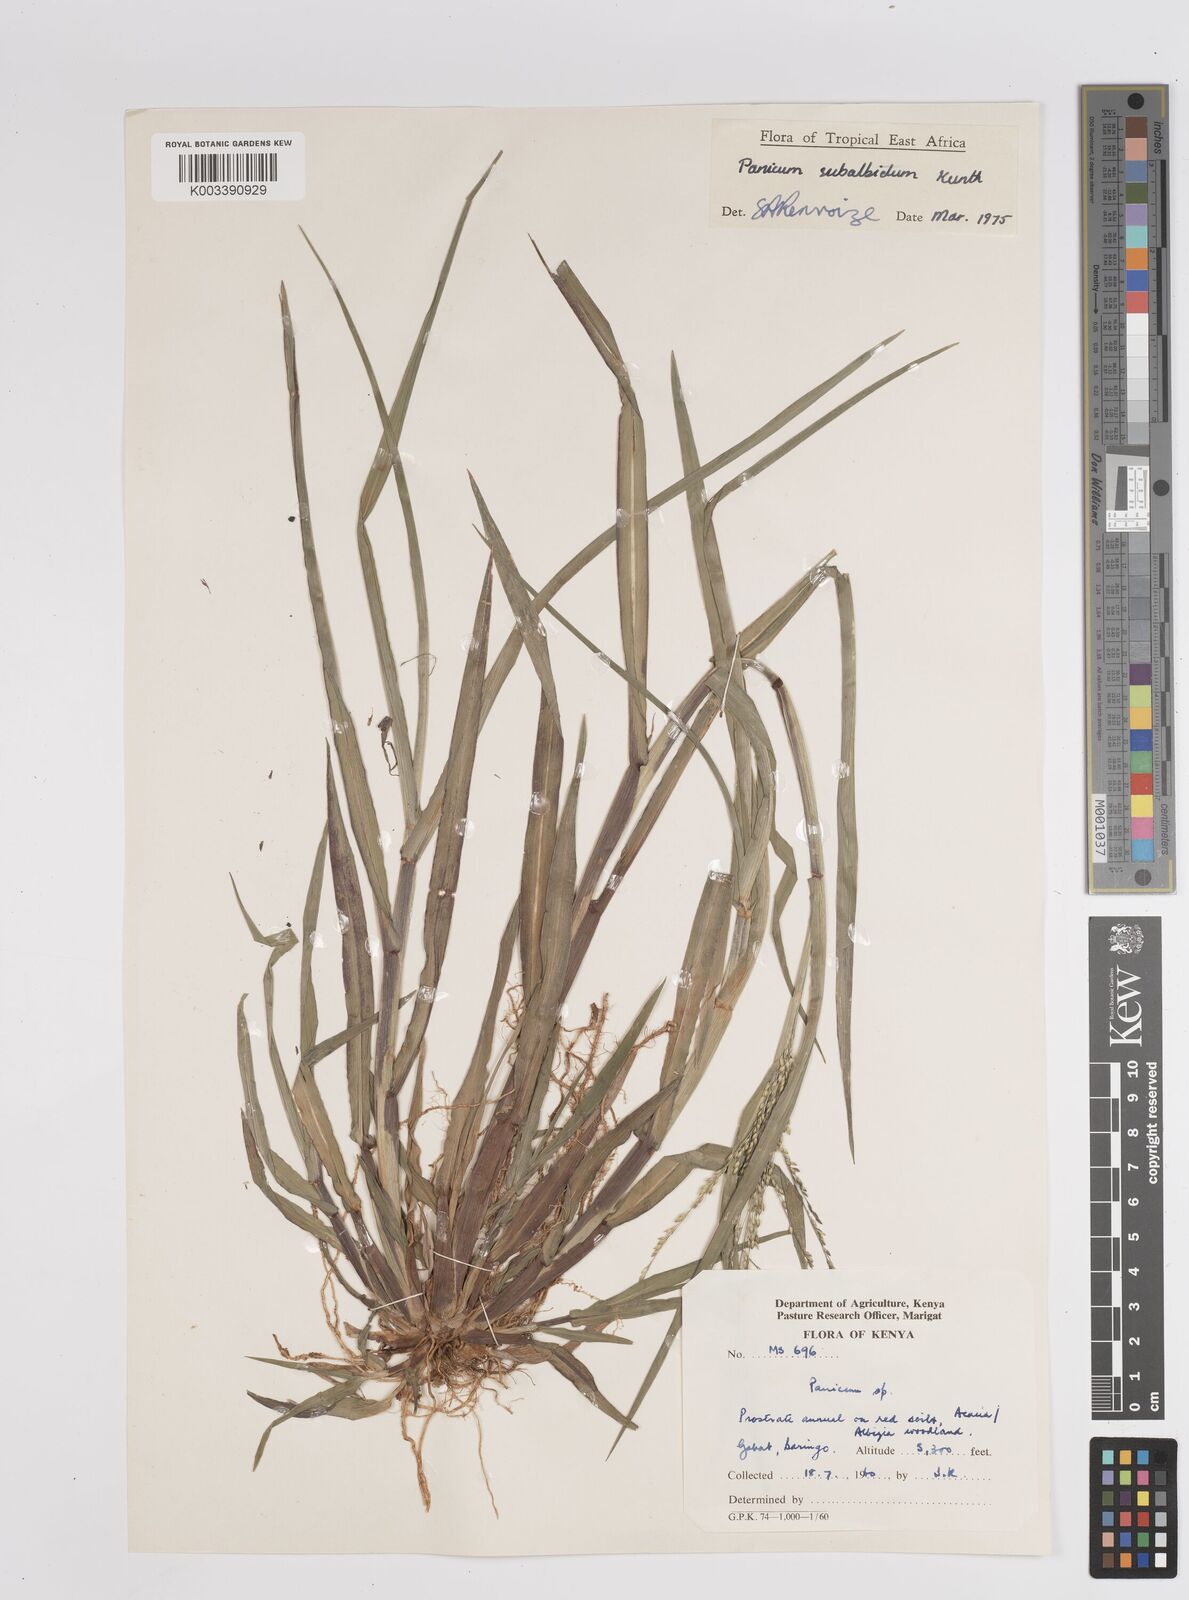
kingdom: Plantae
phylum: Tracheophyta
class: Liliopsida
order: Poales
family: Poaceae
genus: Panicum
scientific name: Panicum subalbidum
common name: Elbow buffalo grass
